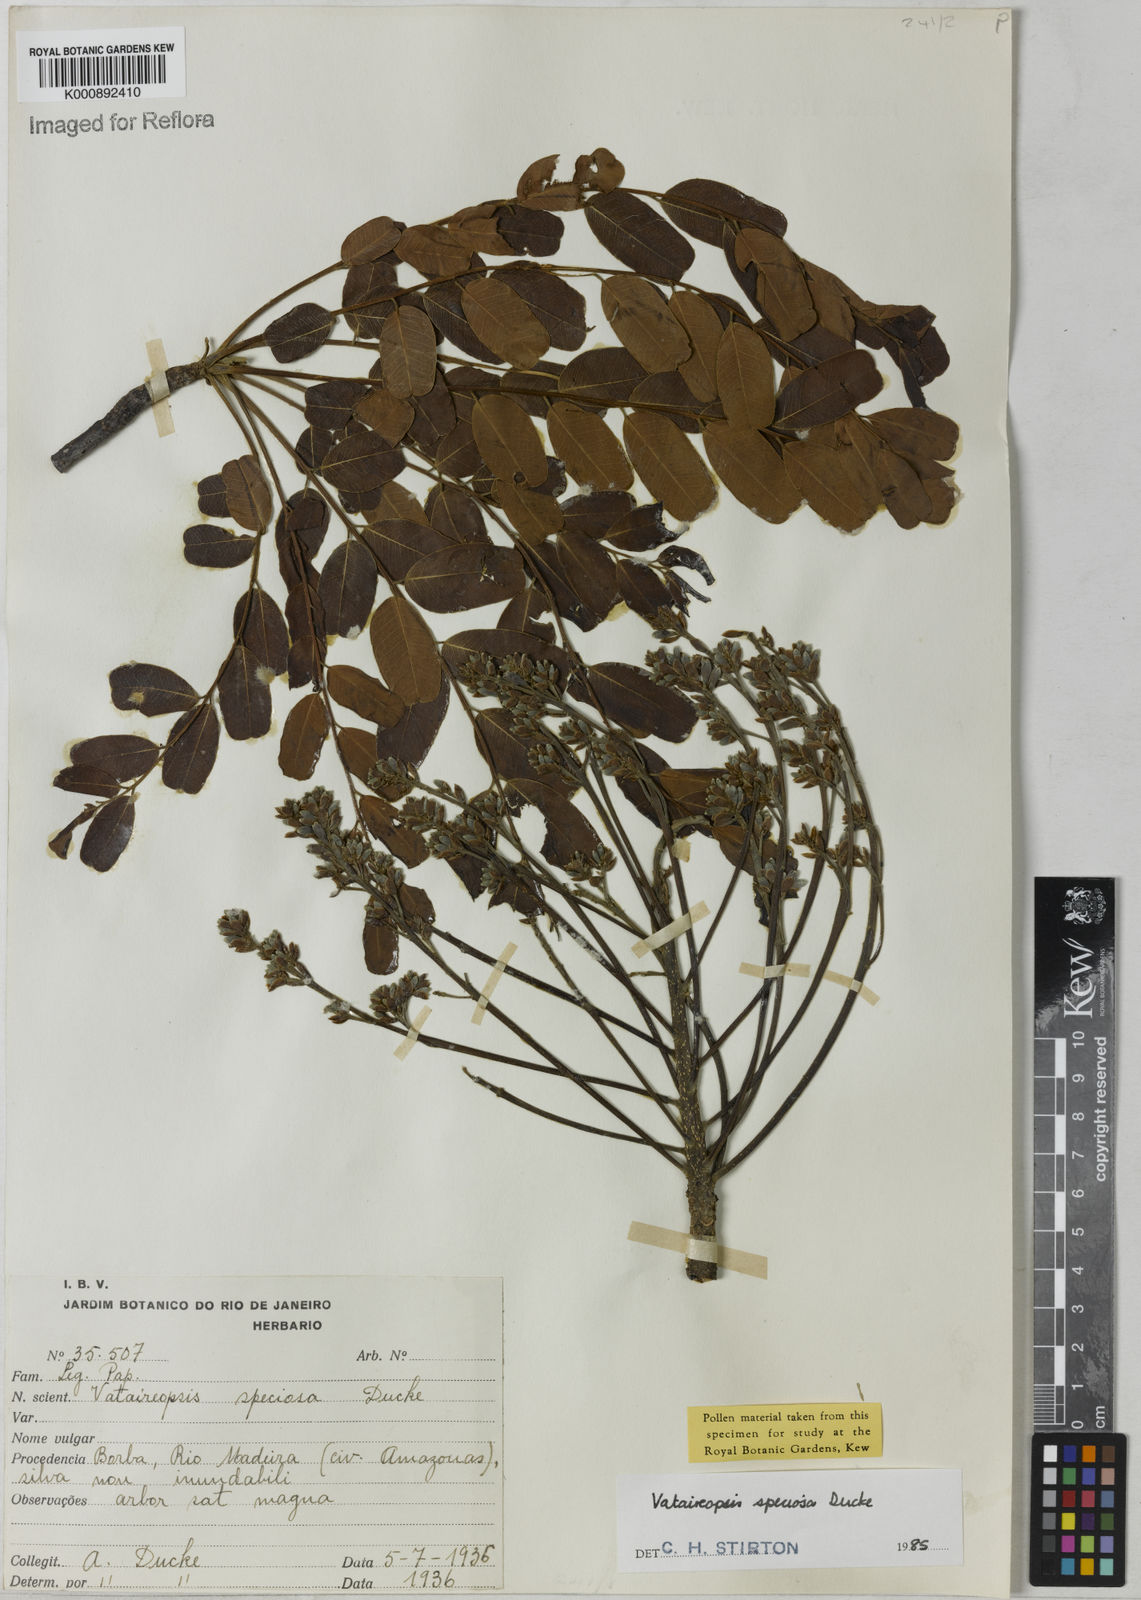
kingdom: Plantae
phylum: Tracheophyta
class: Magnoliopsida
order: Fabales
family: Fabaceae
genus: Vataireopsis
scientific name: Vataireopsis speciosa
